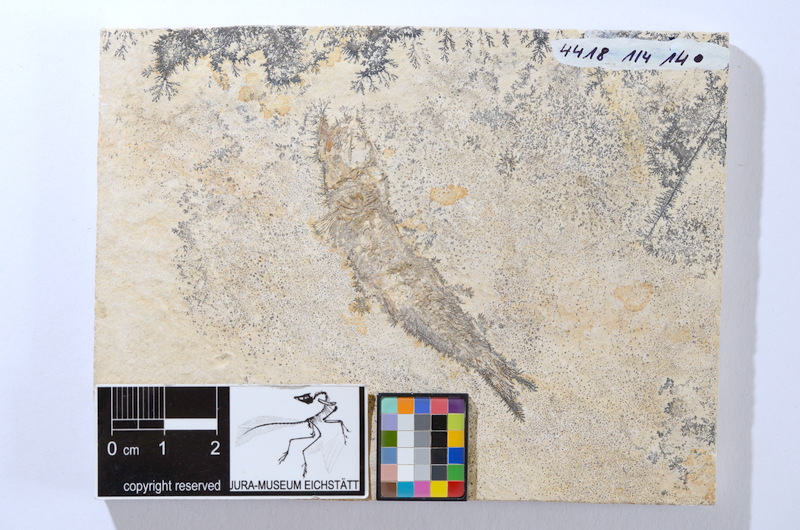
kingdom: Animalia
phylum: Chordata
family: Ascalaboidae
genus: Tharsis
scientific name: Tharsis dubius
